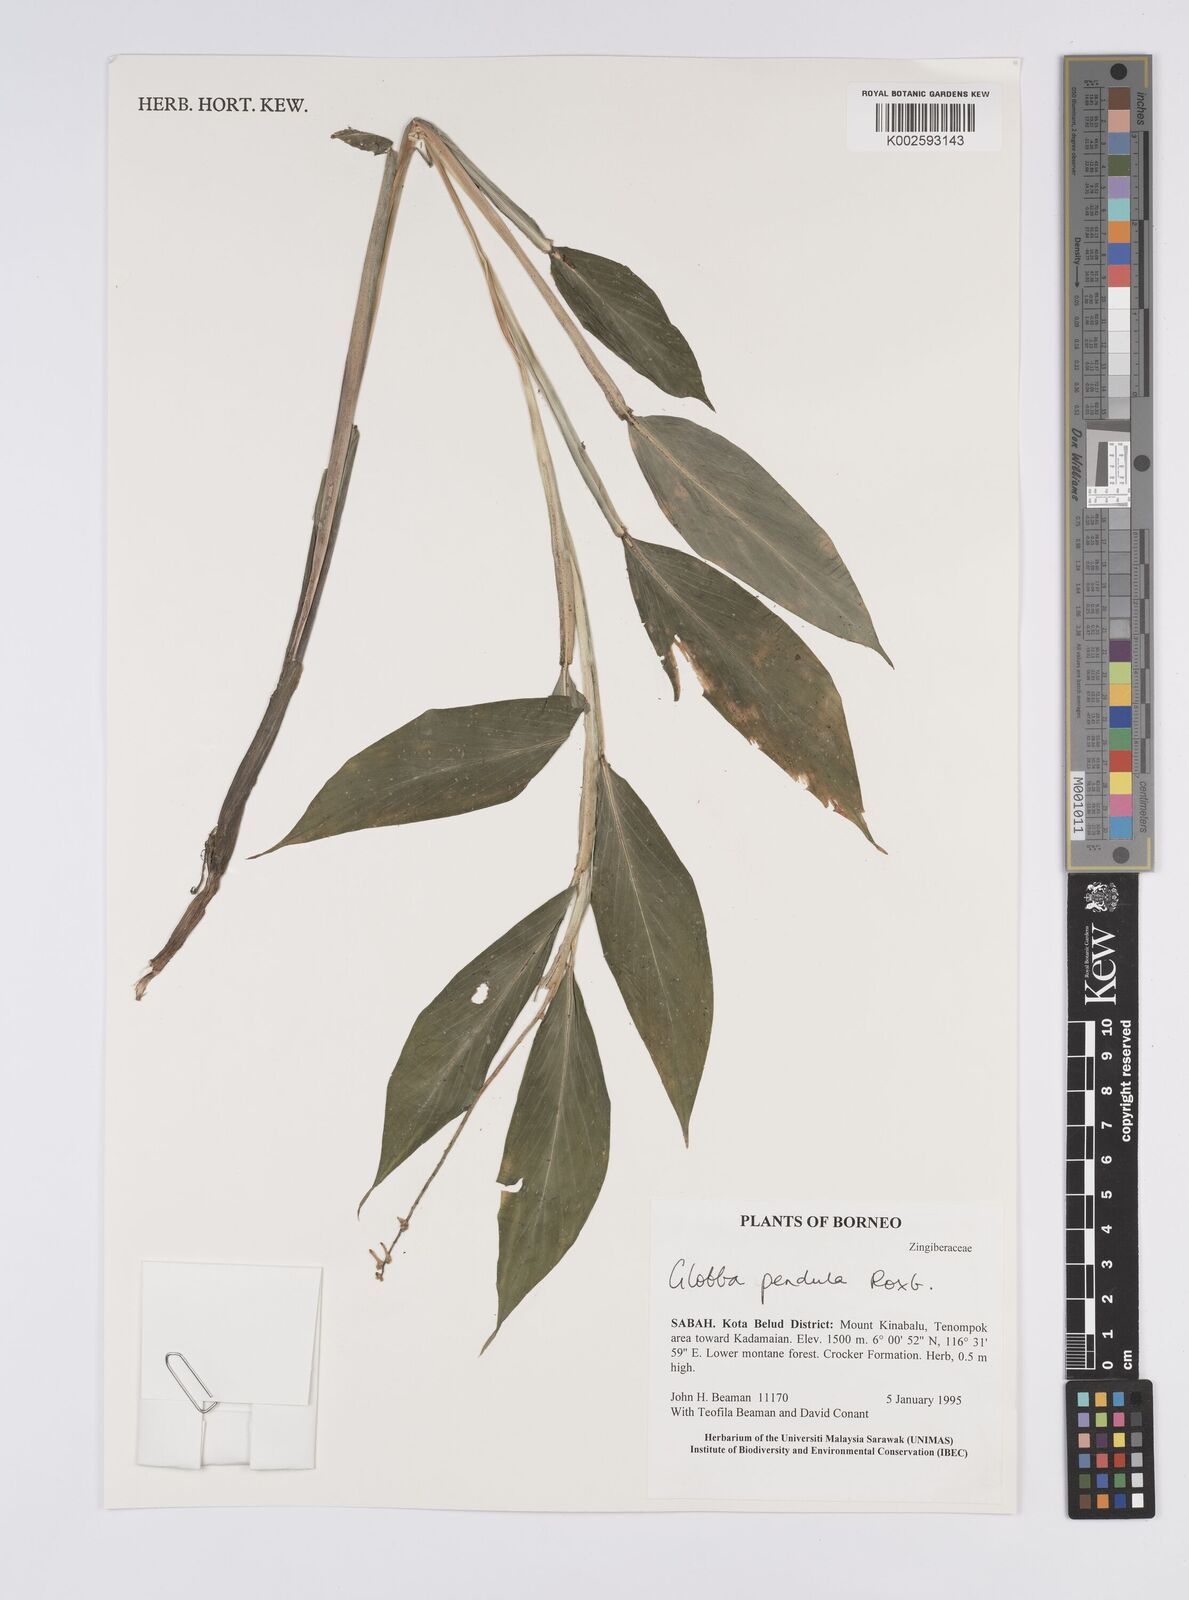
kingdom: Plantae
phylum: Tracheophyta
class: Liliopsida
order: Zingiberales
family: Zingiberaceae
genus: Globba
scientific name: Globba pendula
